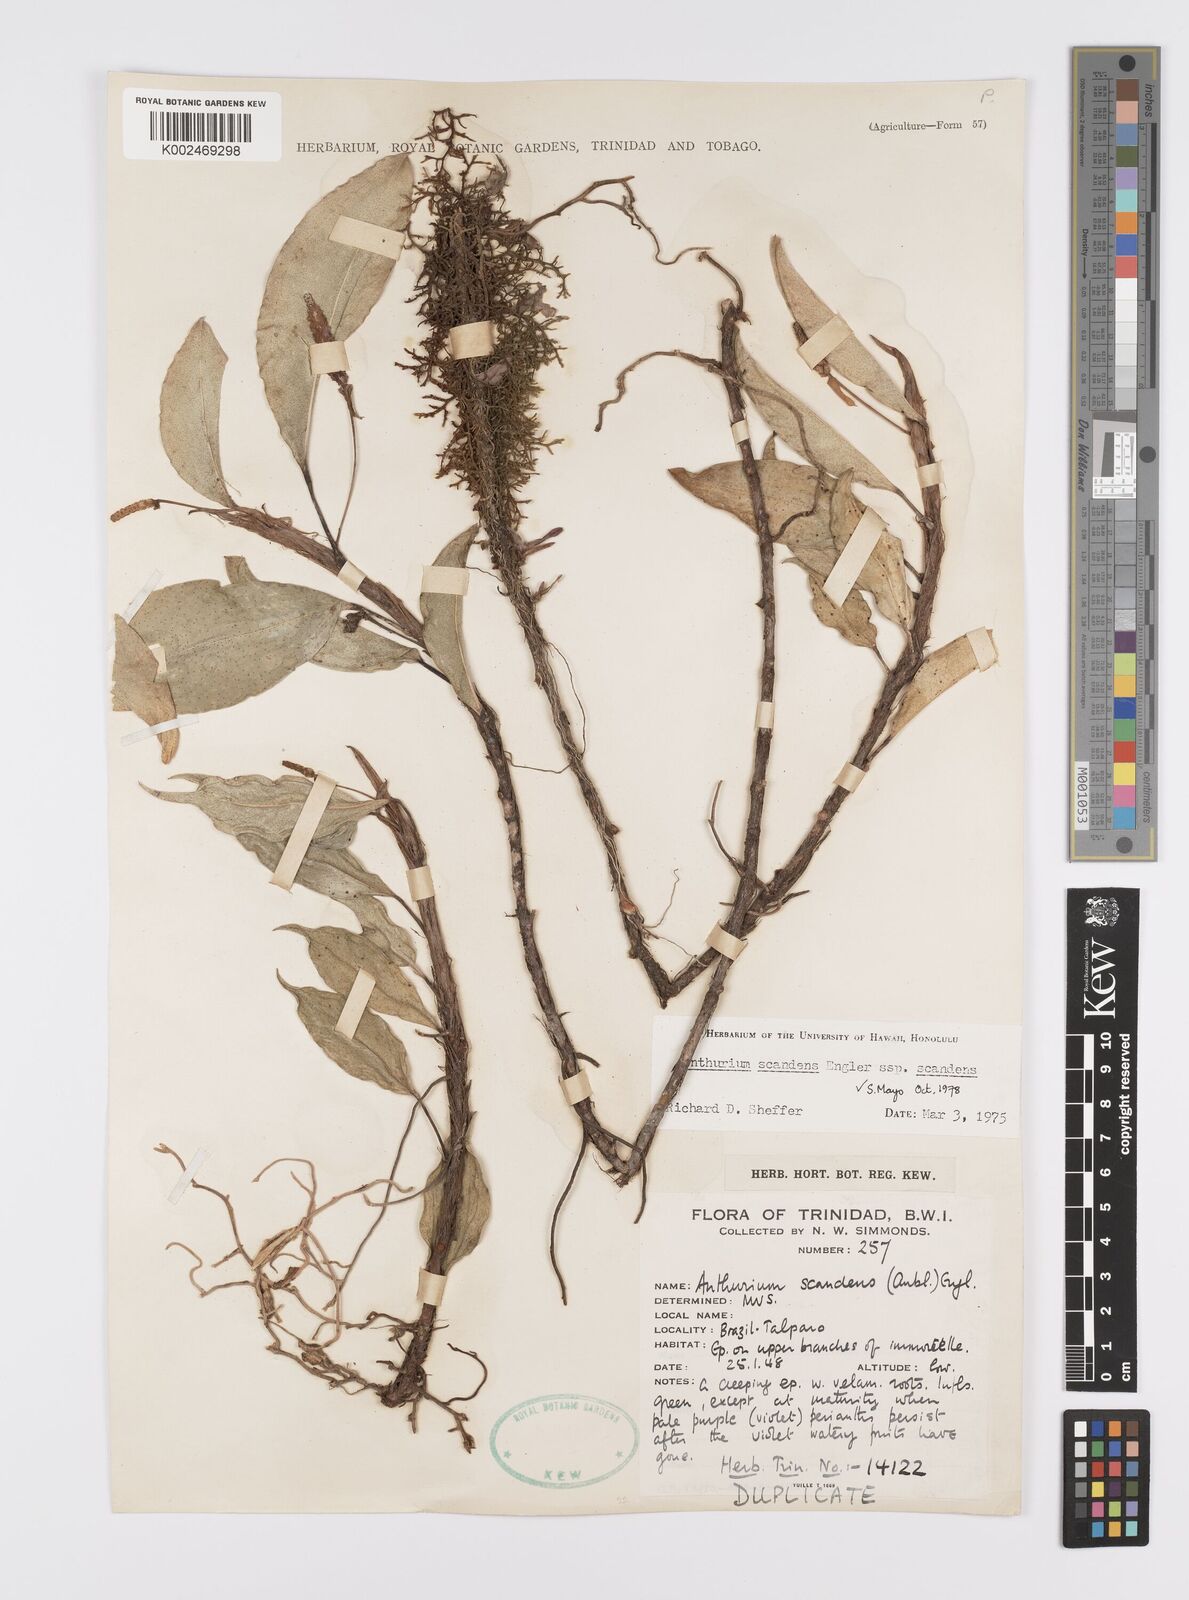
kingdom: Plantae
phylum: Tracheophyta
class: Liliopsida
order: Alismatales
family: Araceae
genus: Anthurium
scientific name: Anthurium scandens
